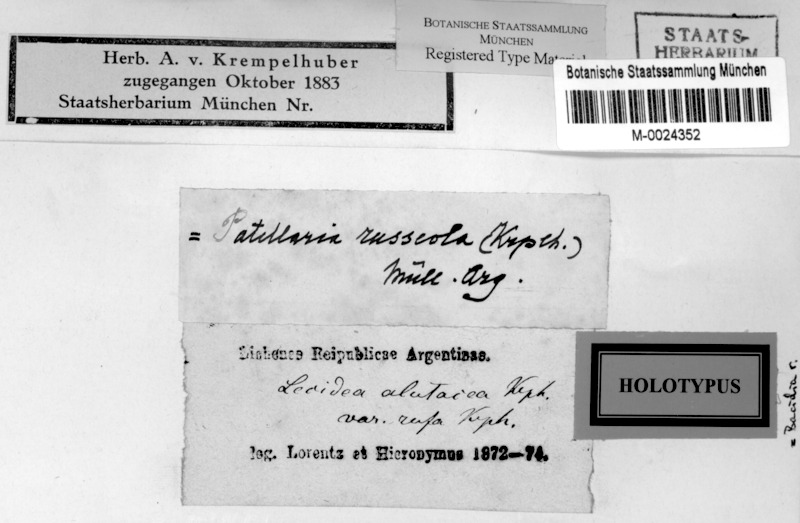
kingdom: Fungi
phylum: Ascomycota
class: Lecanoromycetes
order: Lecanorales
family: Ramalinaceae
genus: Bacidia
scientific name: Bacidia russeola
